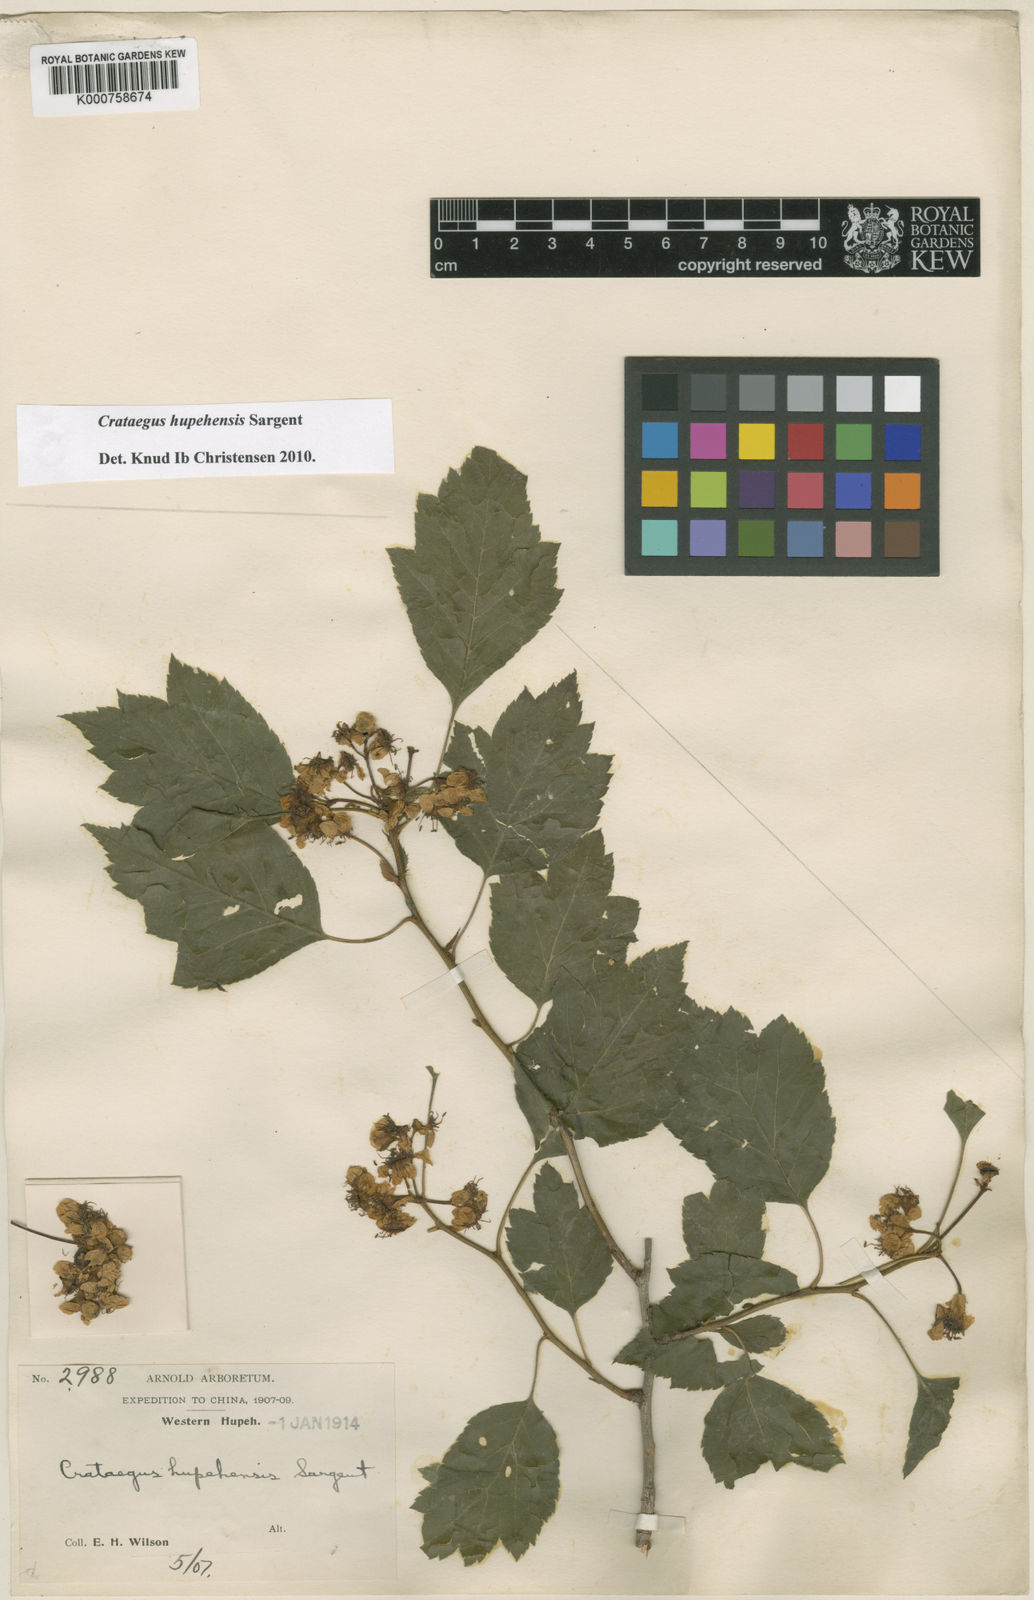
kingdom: Plantae
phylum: Tracheophyta
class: Magnoliopsida
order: Rosales
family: Rosaceae
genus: Crataegus
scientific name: Crataegus hupehensis
